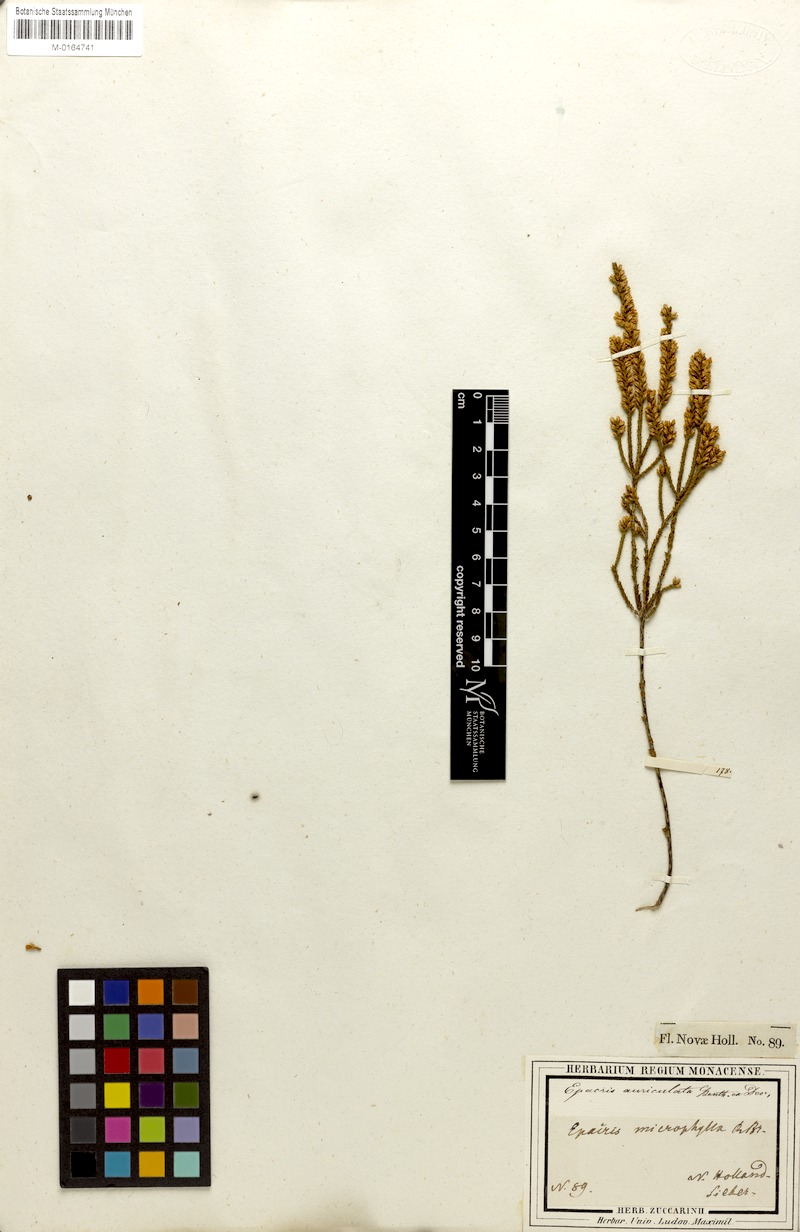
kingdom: Plantae
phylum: Tracheophyta
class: Magnoliopsida
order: Ericales
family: Ericaceae
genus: Epacris
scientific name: Epacris microphylla
